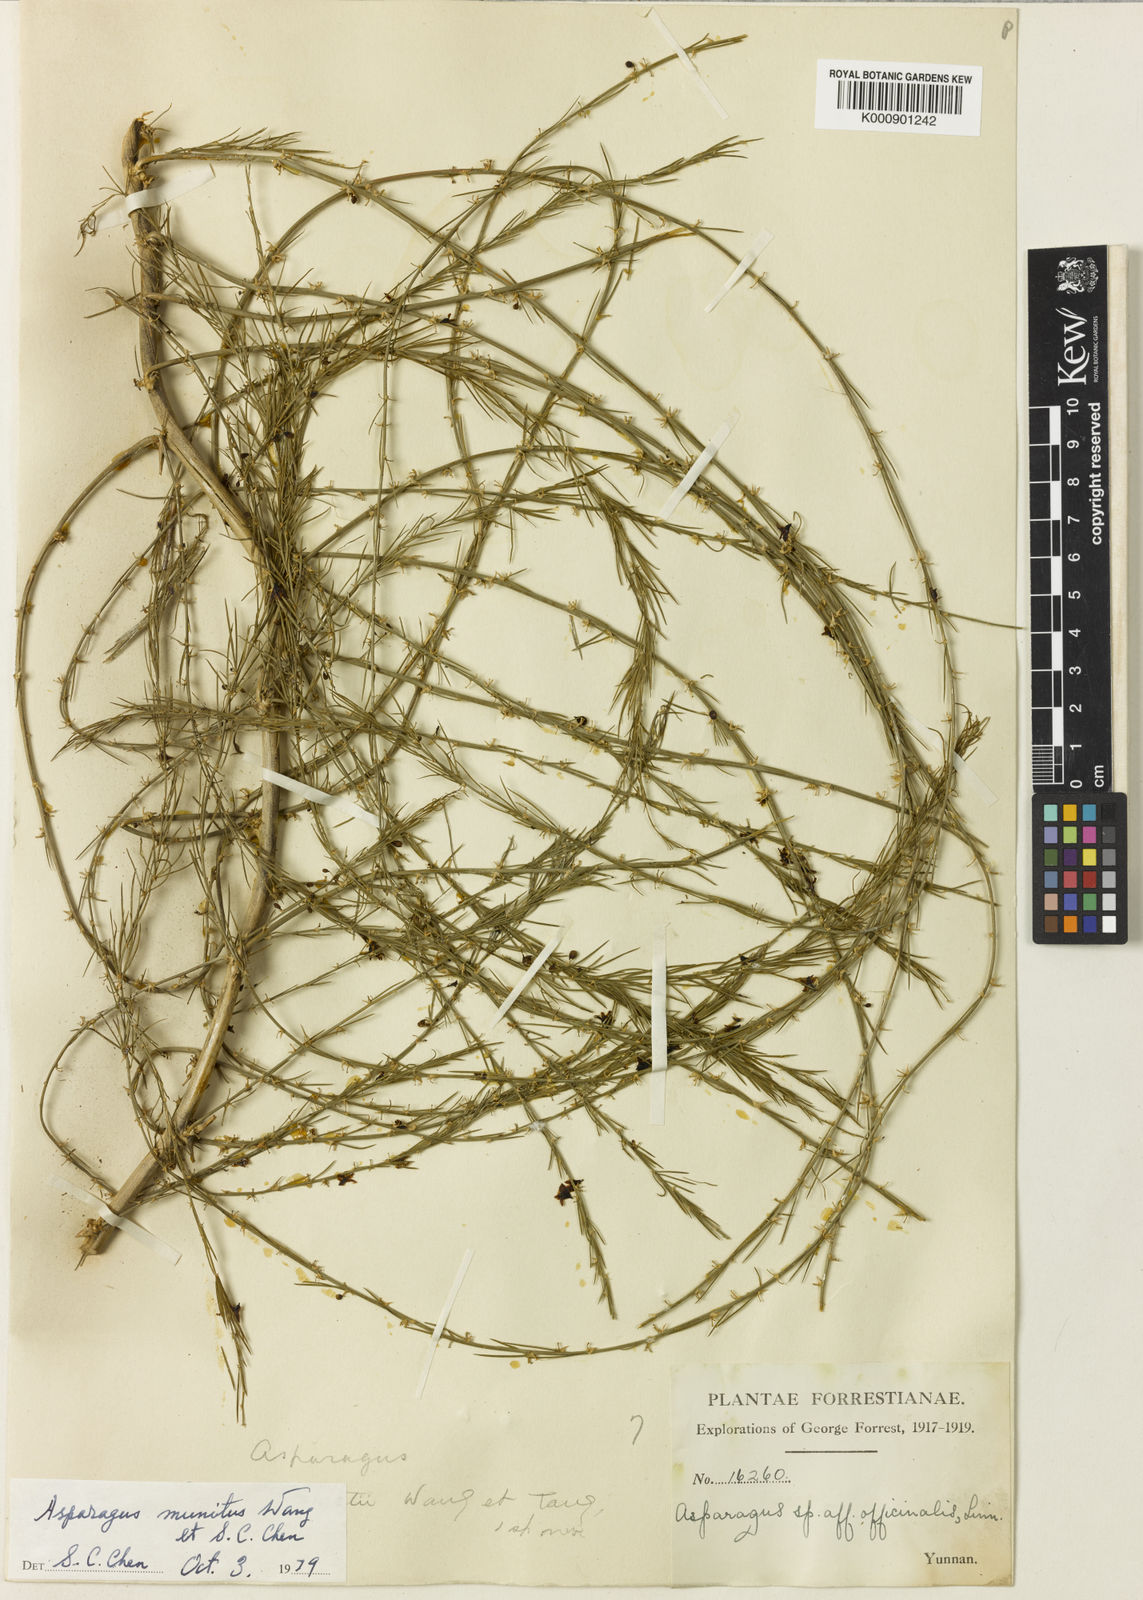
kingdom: Plantae
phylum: Tracheophyta
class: Liliopsida
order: Asparagales
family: Asparagaceae
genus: Asparagus
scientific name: Asparagus
